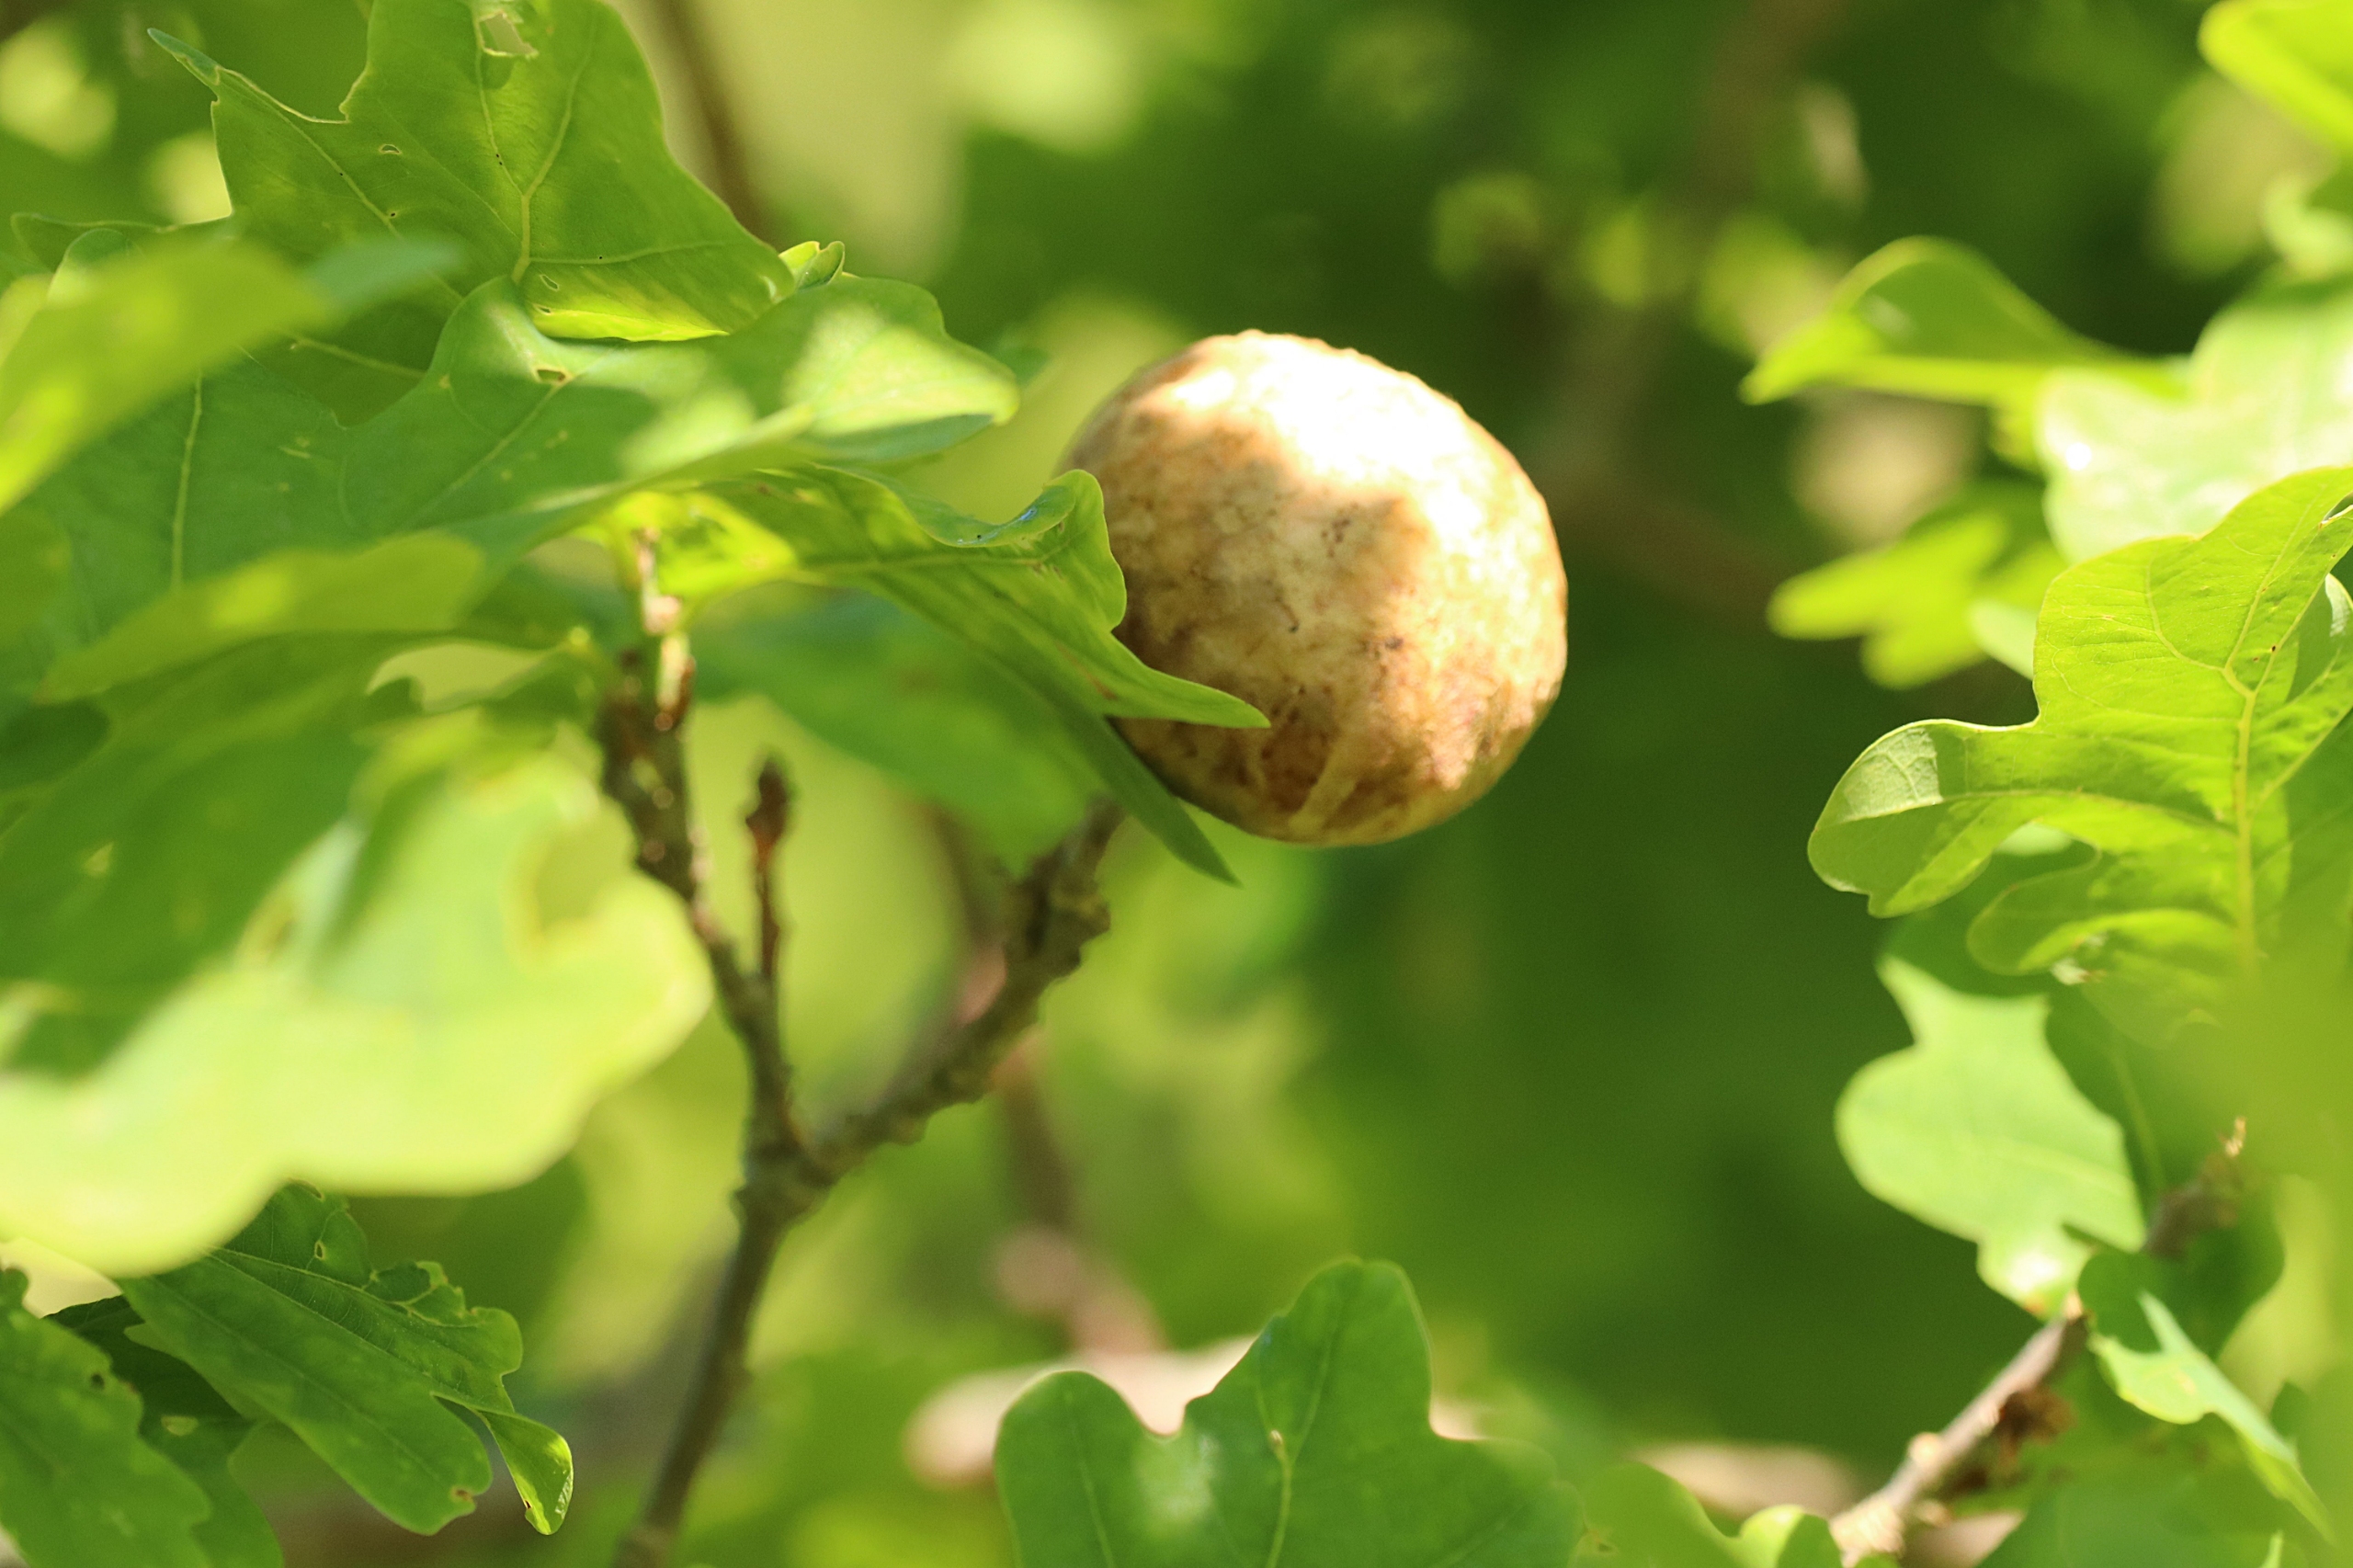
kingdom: Animalia
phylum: Arthropoda
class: Insecta
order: Hymenoptera
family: Cynipidae
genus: Biorhiza
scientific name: Biorhiza pallida
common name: Ege-kartoffelgalhveps
